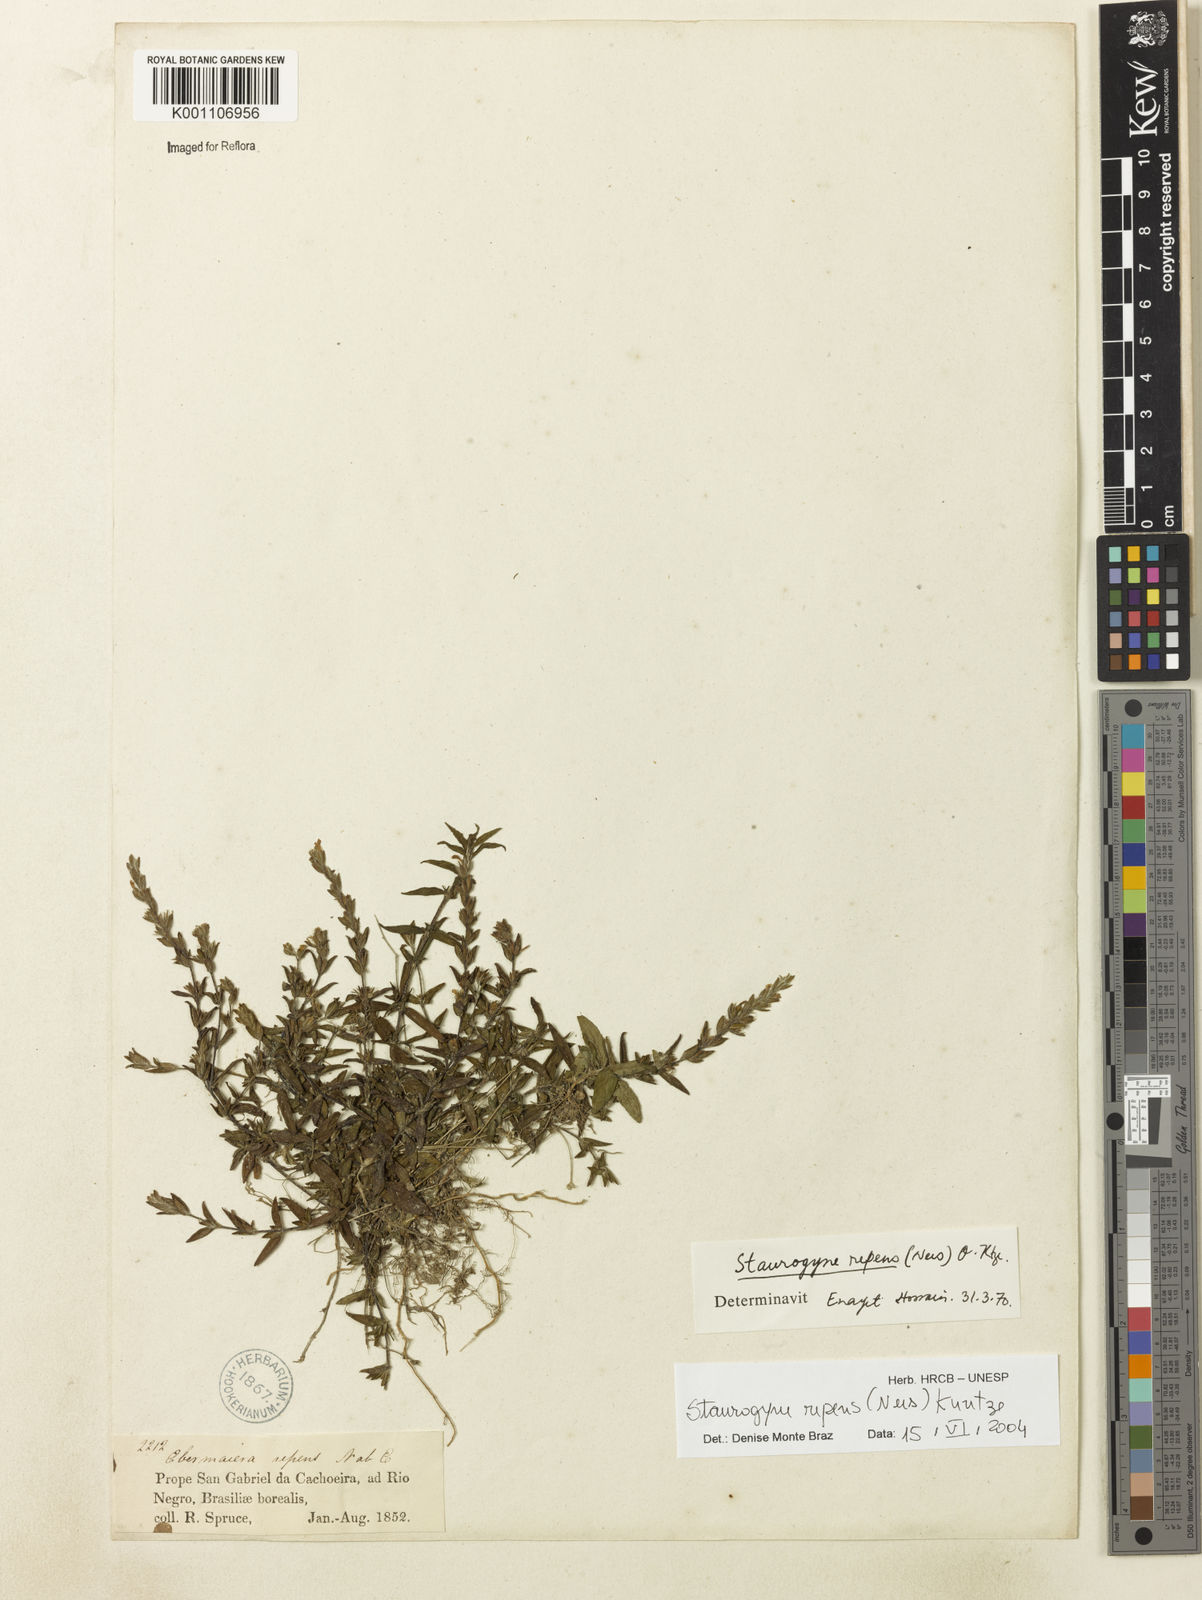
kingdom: Plantae
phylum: Tracheophyta
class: Magnoliopsida
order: Lamiales
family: Acanthaceae
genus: Staurogyne
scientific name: Staurogyne repens
